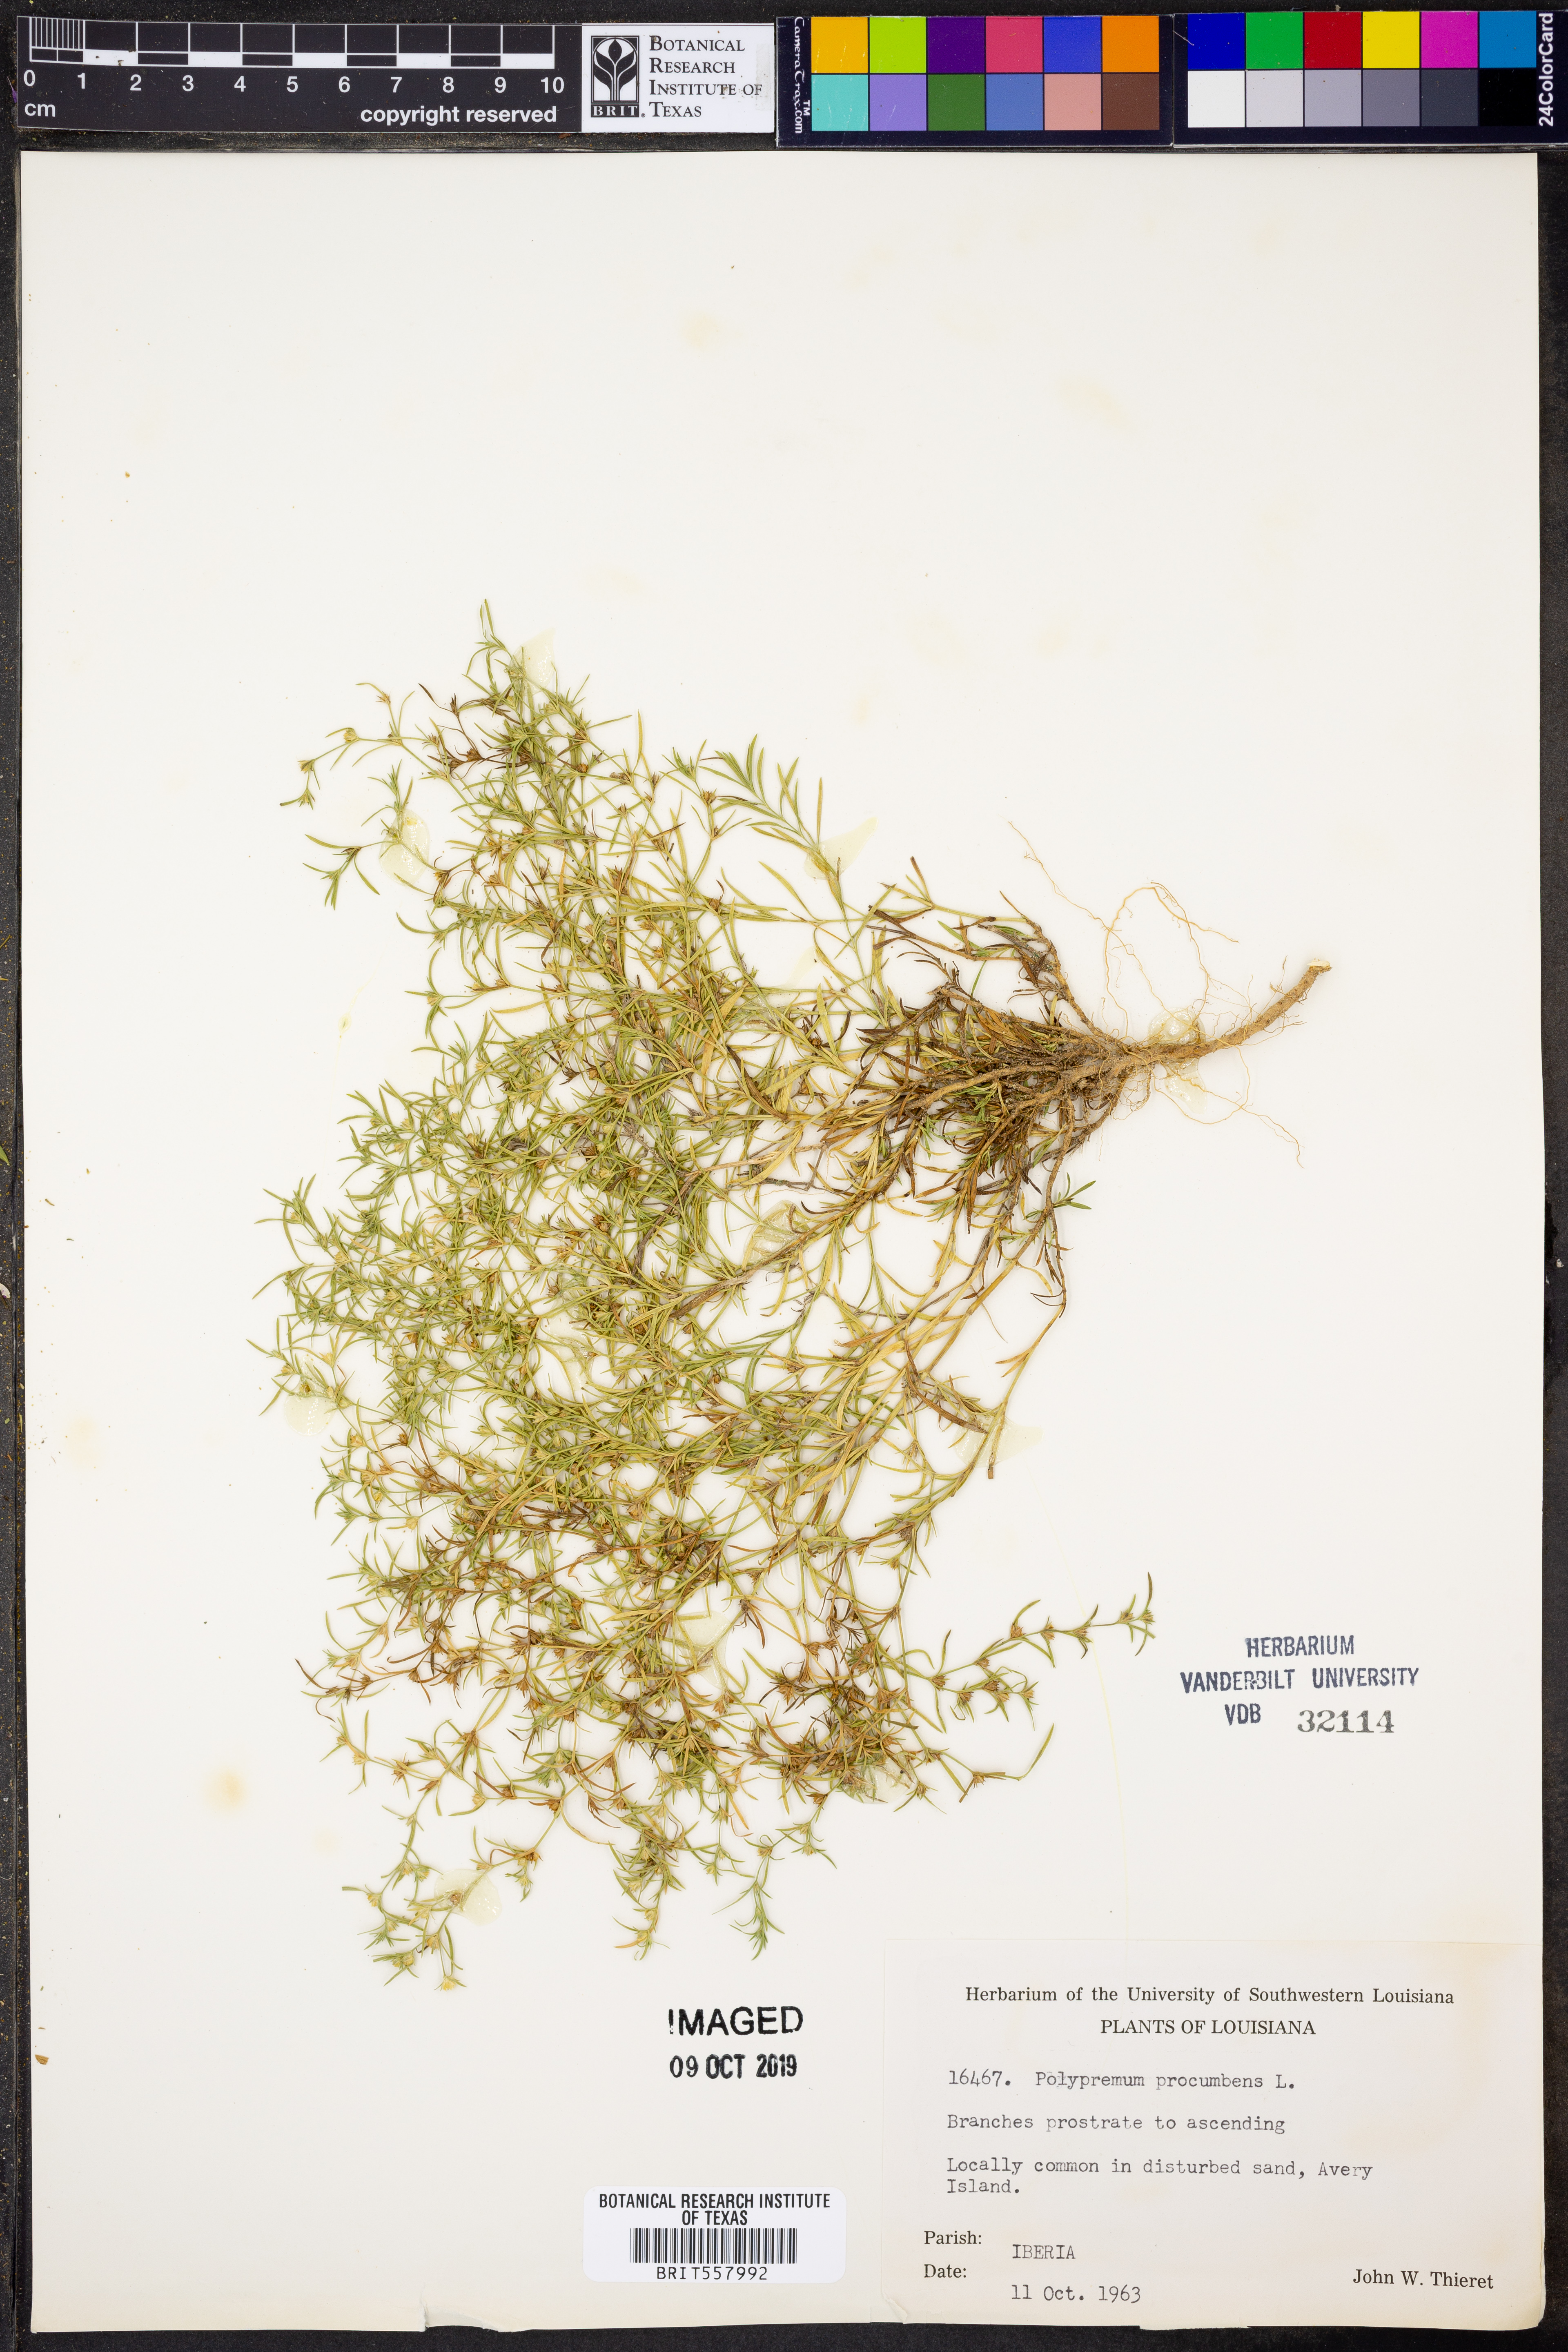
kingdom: Plantae
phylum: Tracheophyta
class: Magnoliopsida
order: Lamiales
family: Tetrachondraceae
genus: Polypremum
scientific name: Polypremum procumbens
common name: Juniper-leaf
